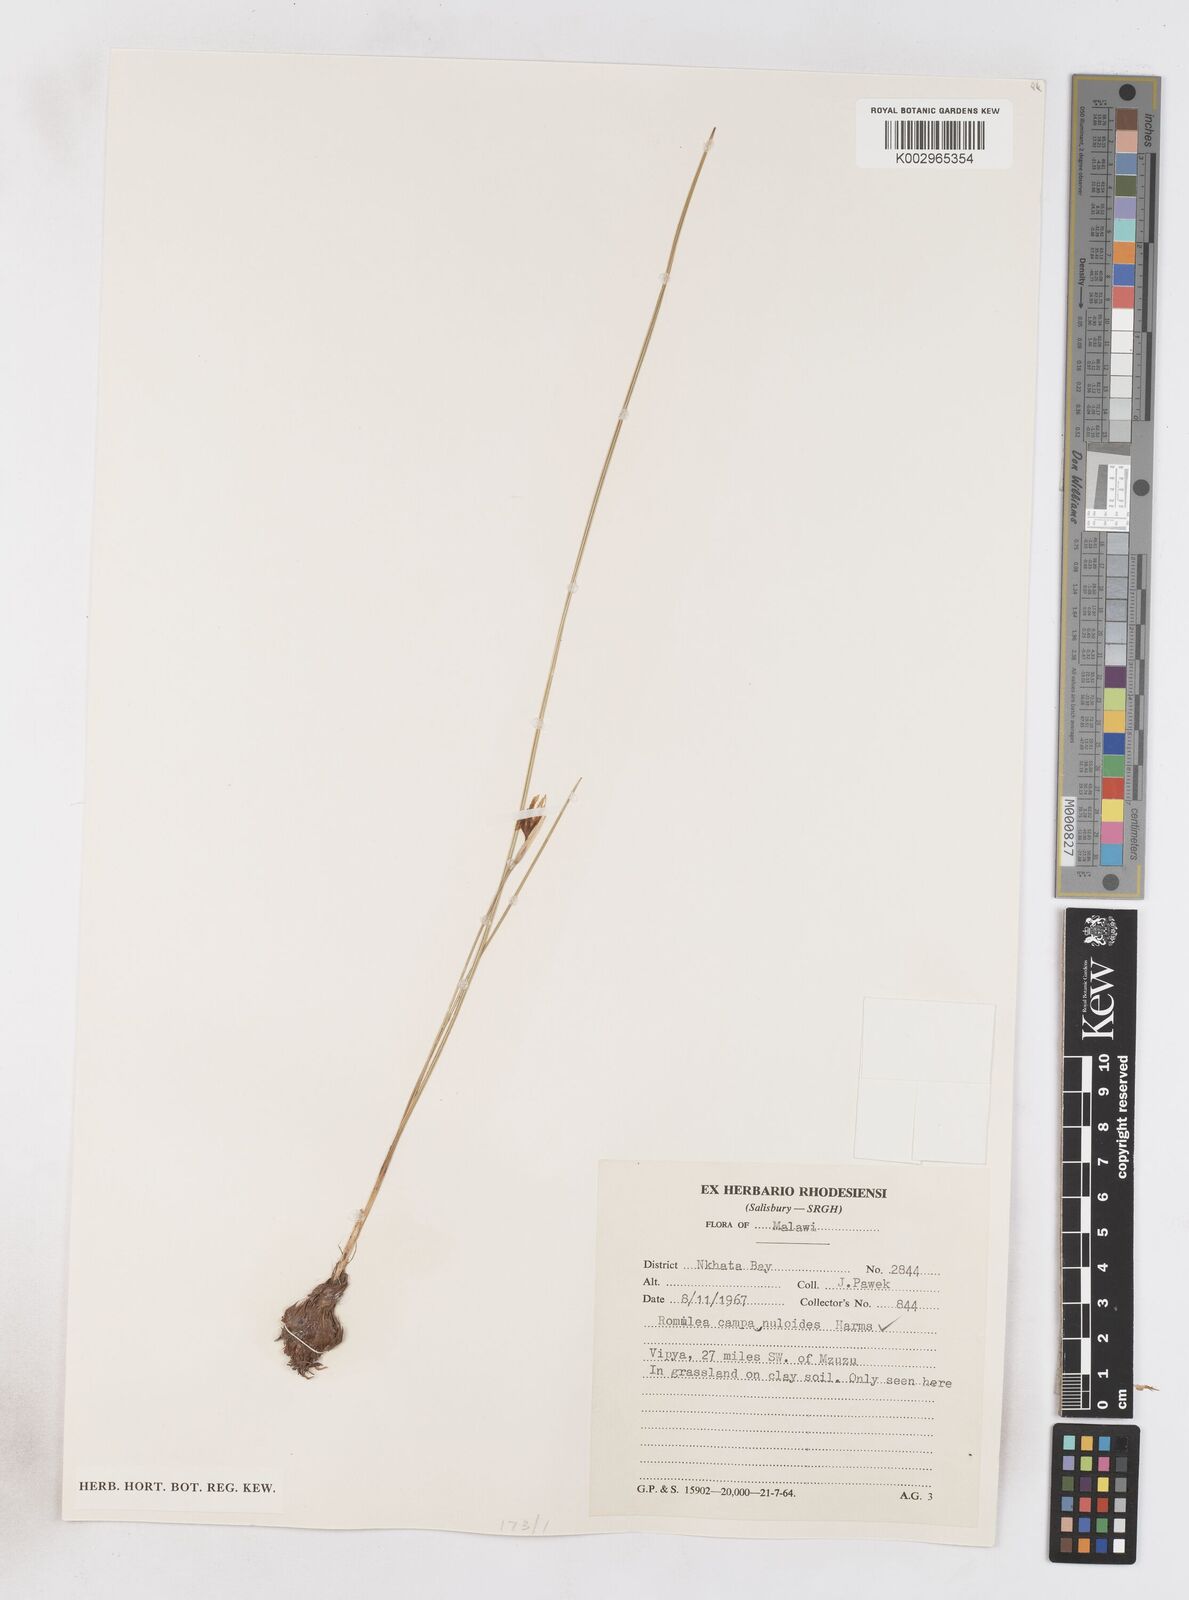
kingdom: Plantae
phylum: Tracheophyta
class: Liliopsida
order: Asparagales
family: Iridaceae
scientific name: Iridaceae
